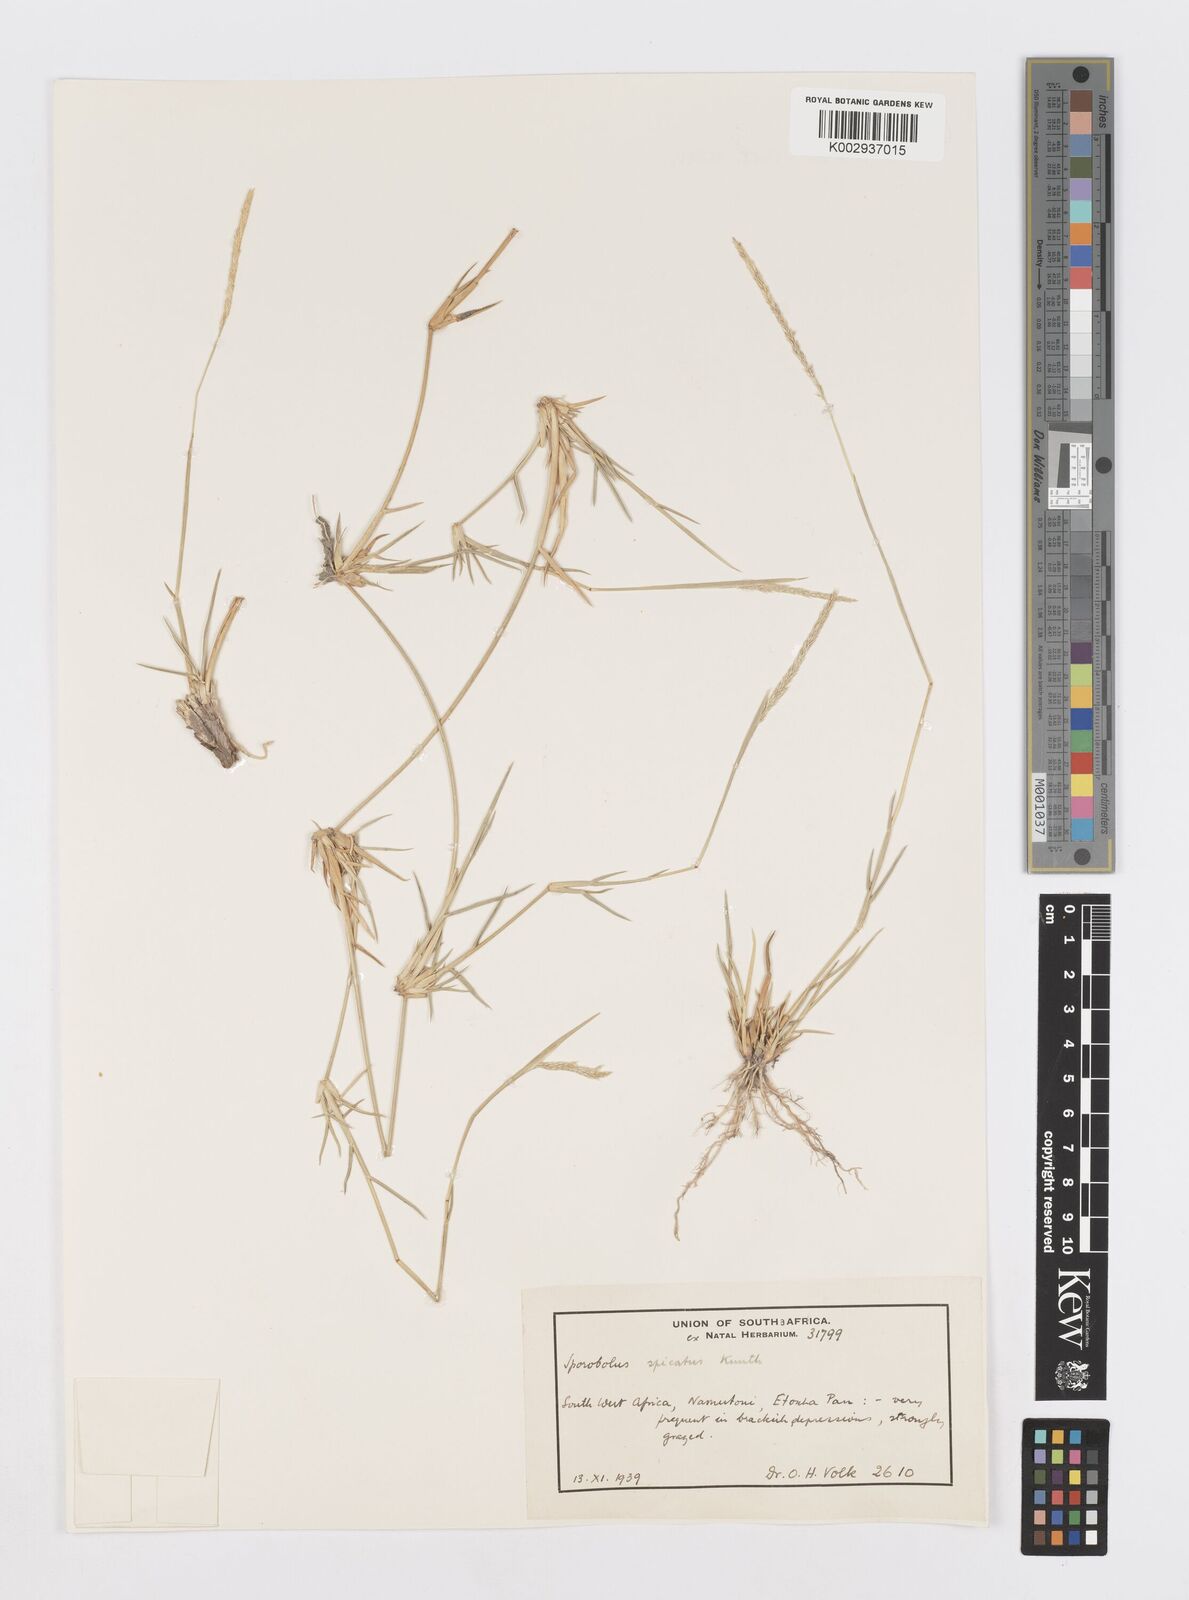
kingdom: Plantae
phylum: Tracheophyta
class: Liliopsida
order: Poales
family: Poaceae
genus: Sporobolus
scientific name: Sporobolus spicatus
